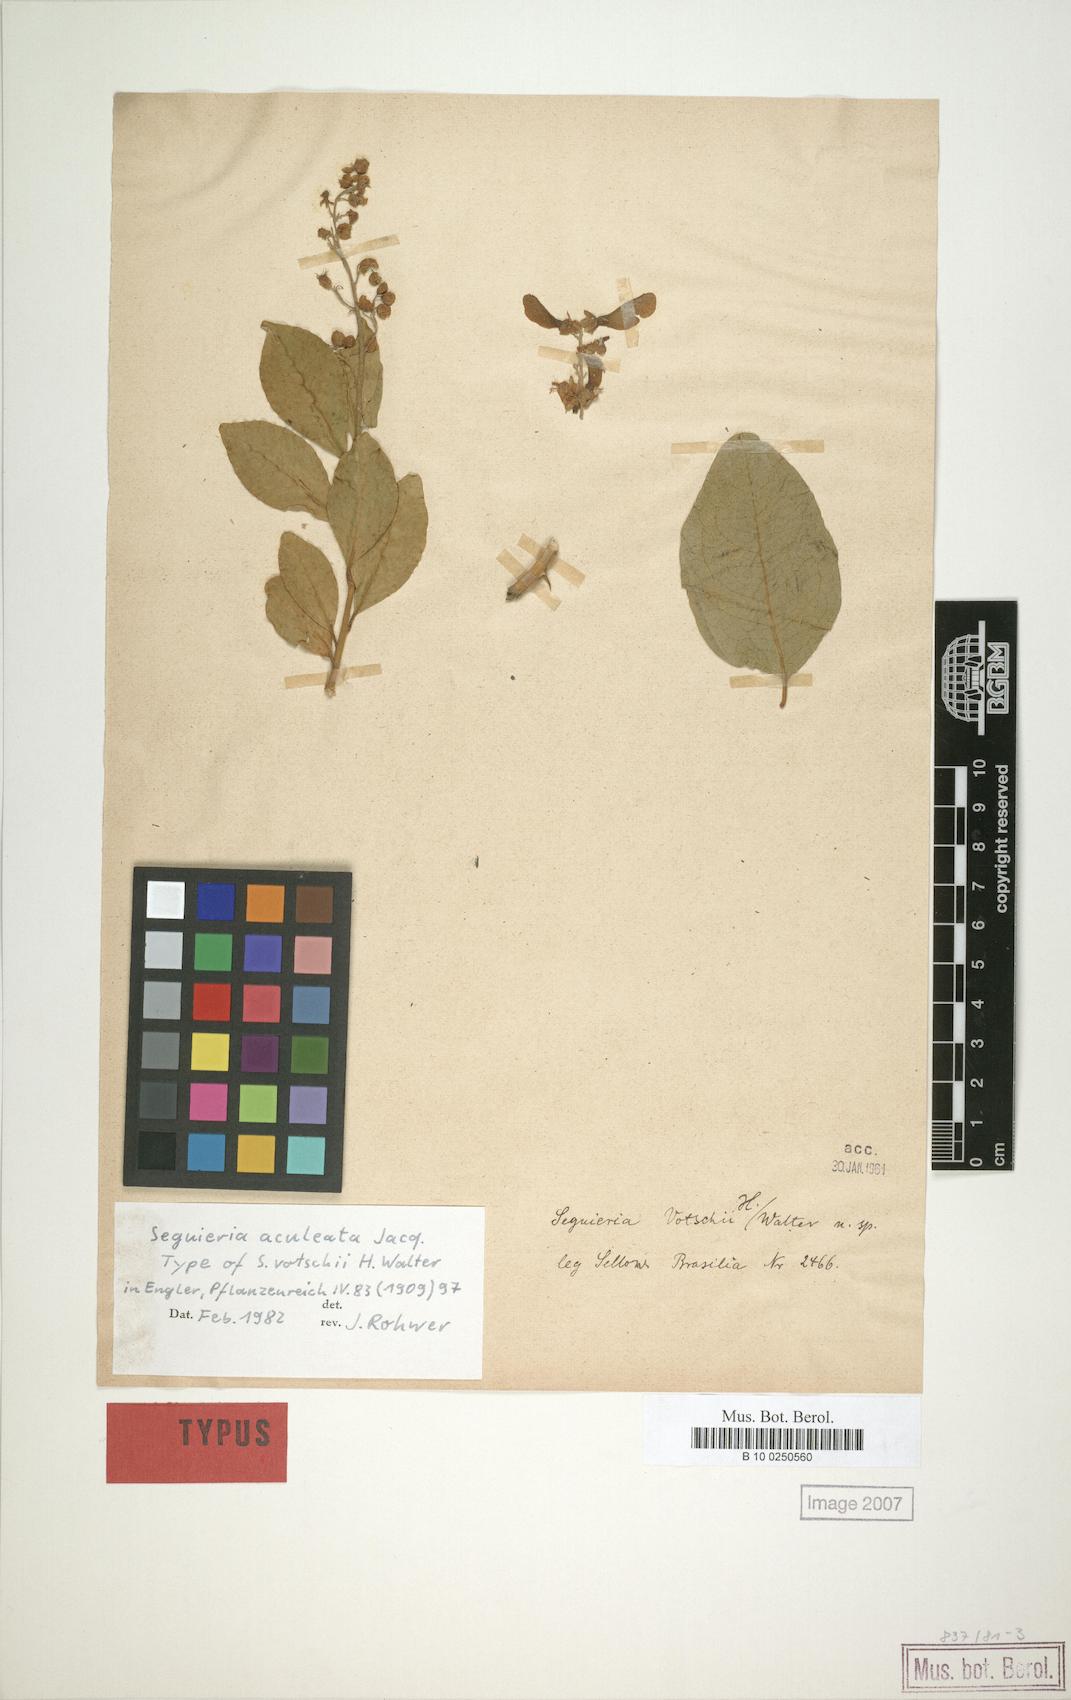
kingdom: Plantae
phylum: Tracheophyta
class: Magnoliopsida
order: Caryophyllales
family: Phytolaccaceae
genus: Seguieria
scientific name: Seguieria aculeata
